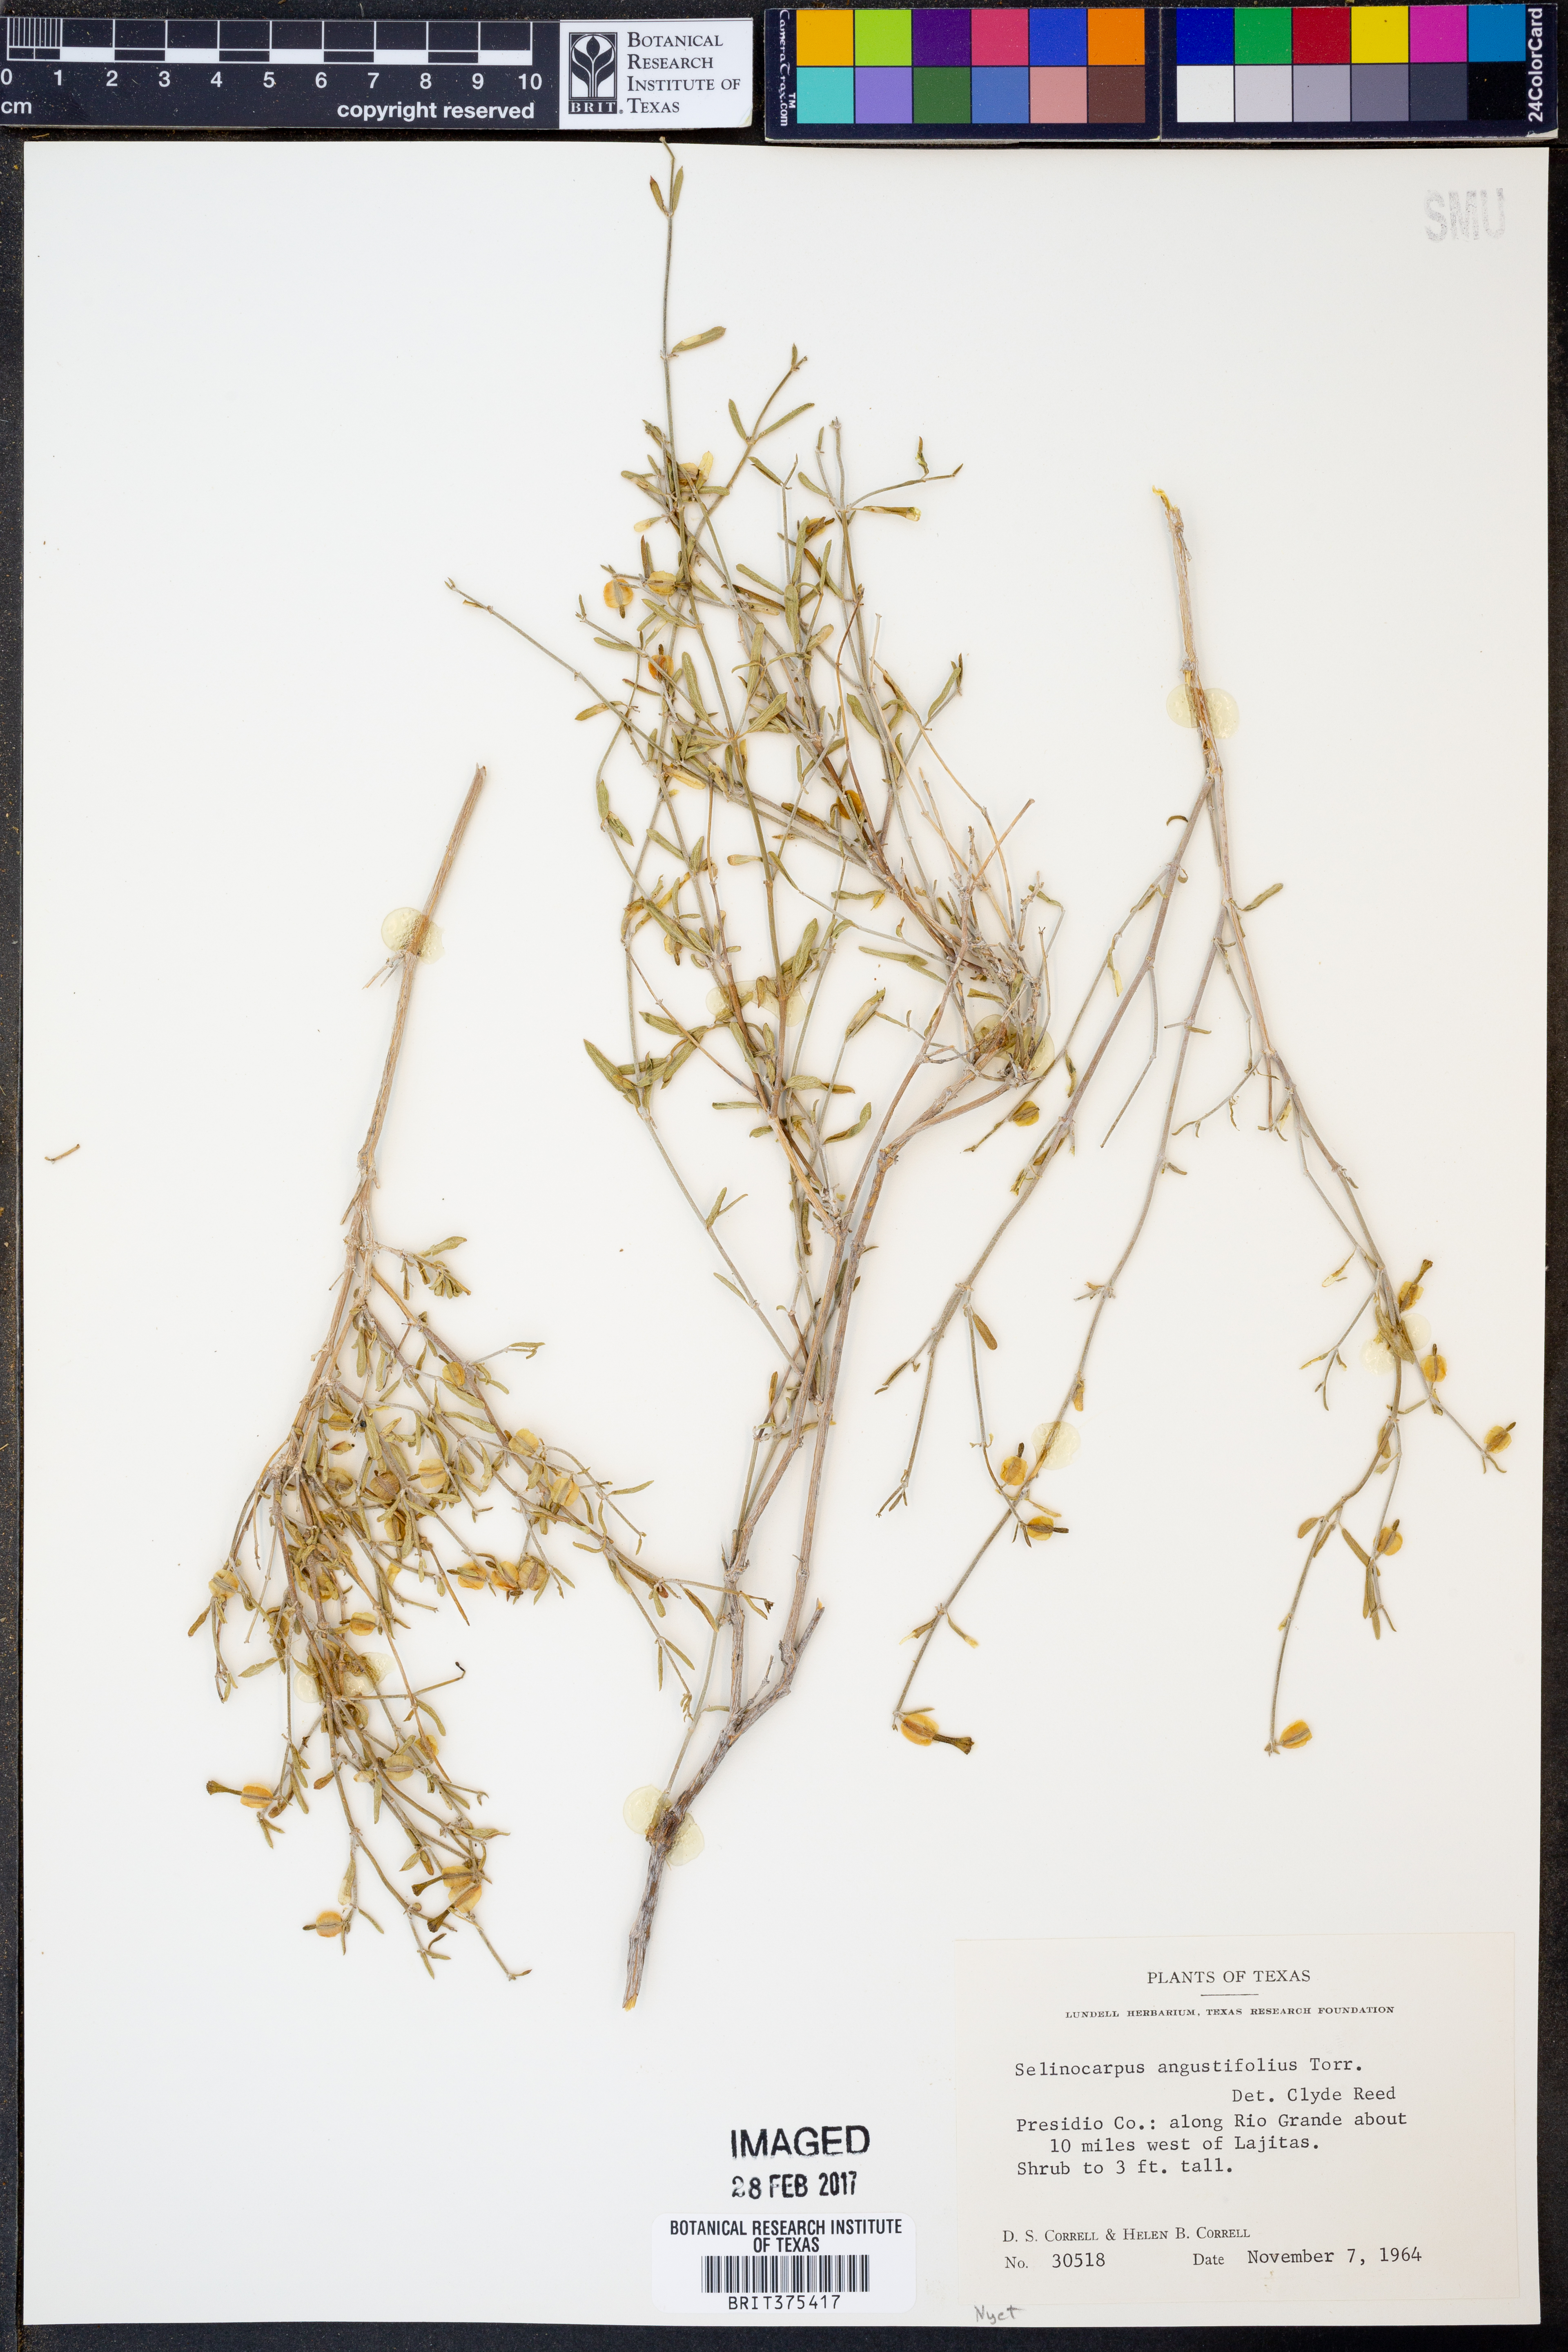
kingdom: Plantae
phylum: Tracheophyta
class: Magnoliopsida
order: Caryophyllales
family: Nyctaginaceae
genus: Acleisanthes
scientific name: Acleisanthes angustifolia
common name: Narrowleaf moonpod
